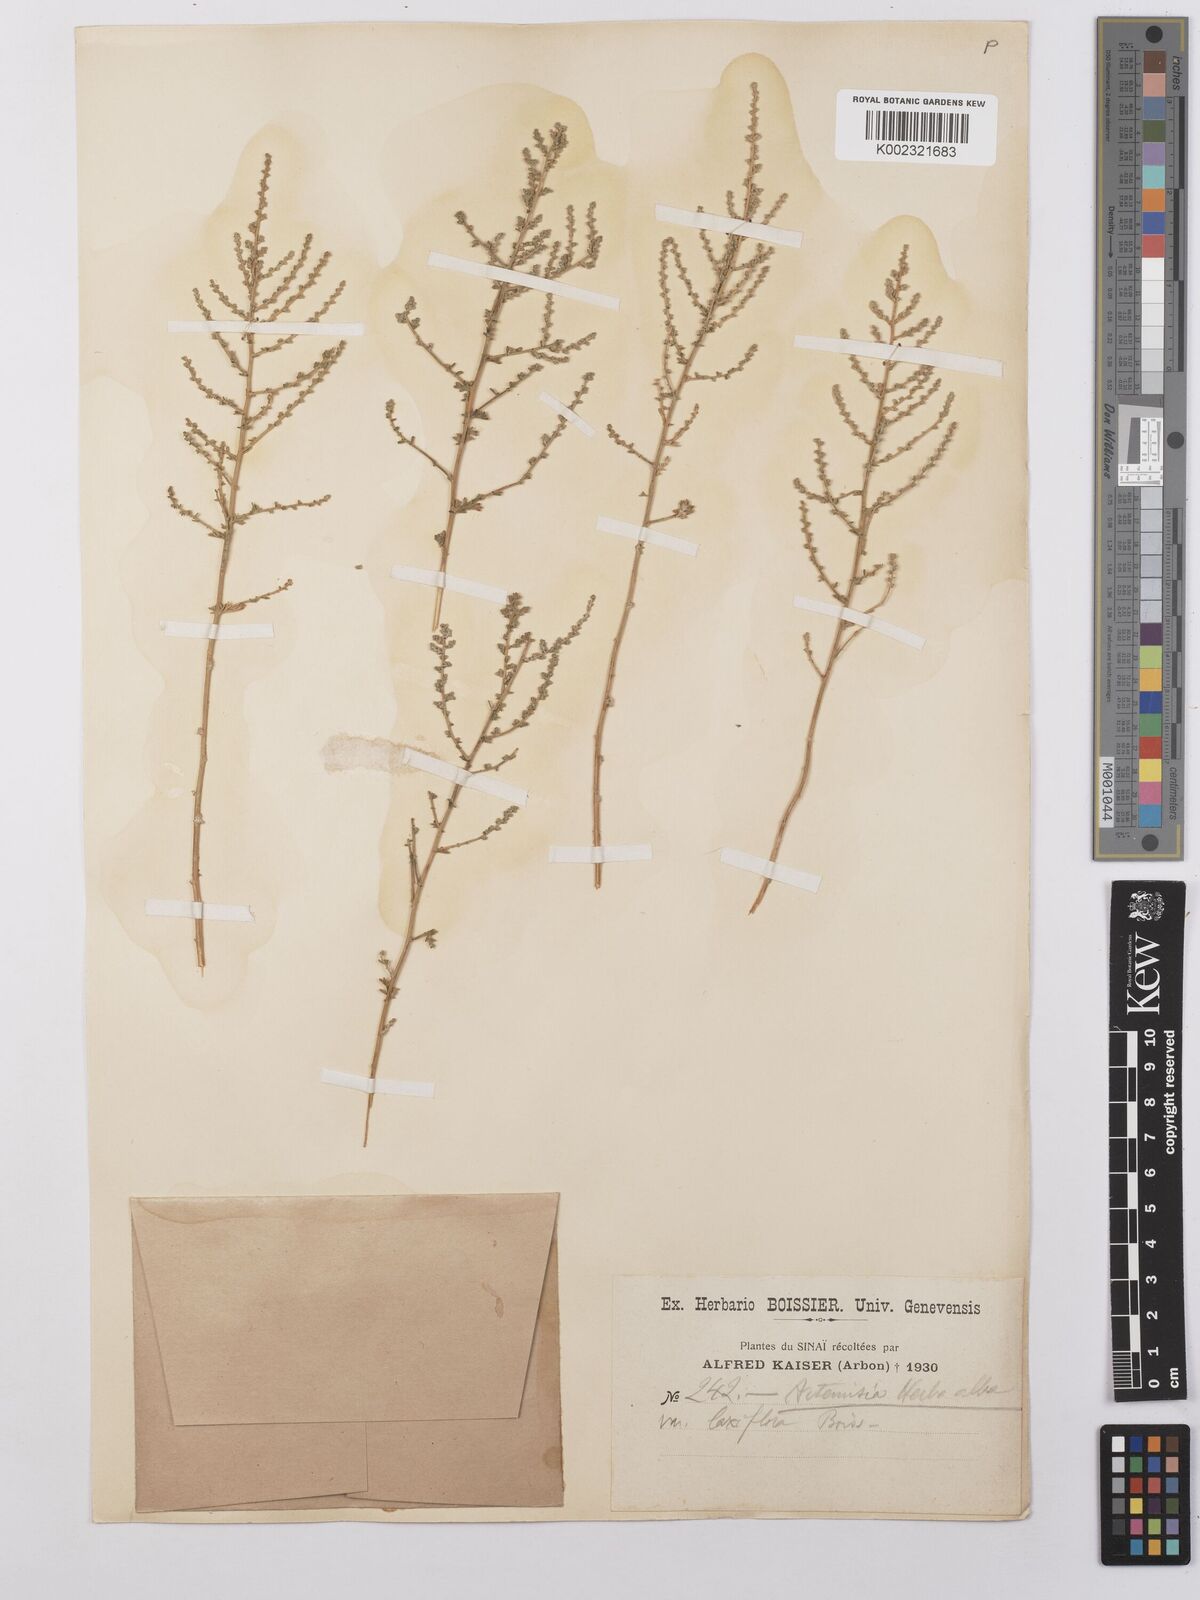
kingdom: Plantae
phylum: Tracheophyta
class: Magnoliopsida
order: Asterales
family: Asteraceae
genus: Artemisia
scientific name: Artemisia herba-alba
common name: White wormwood
